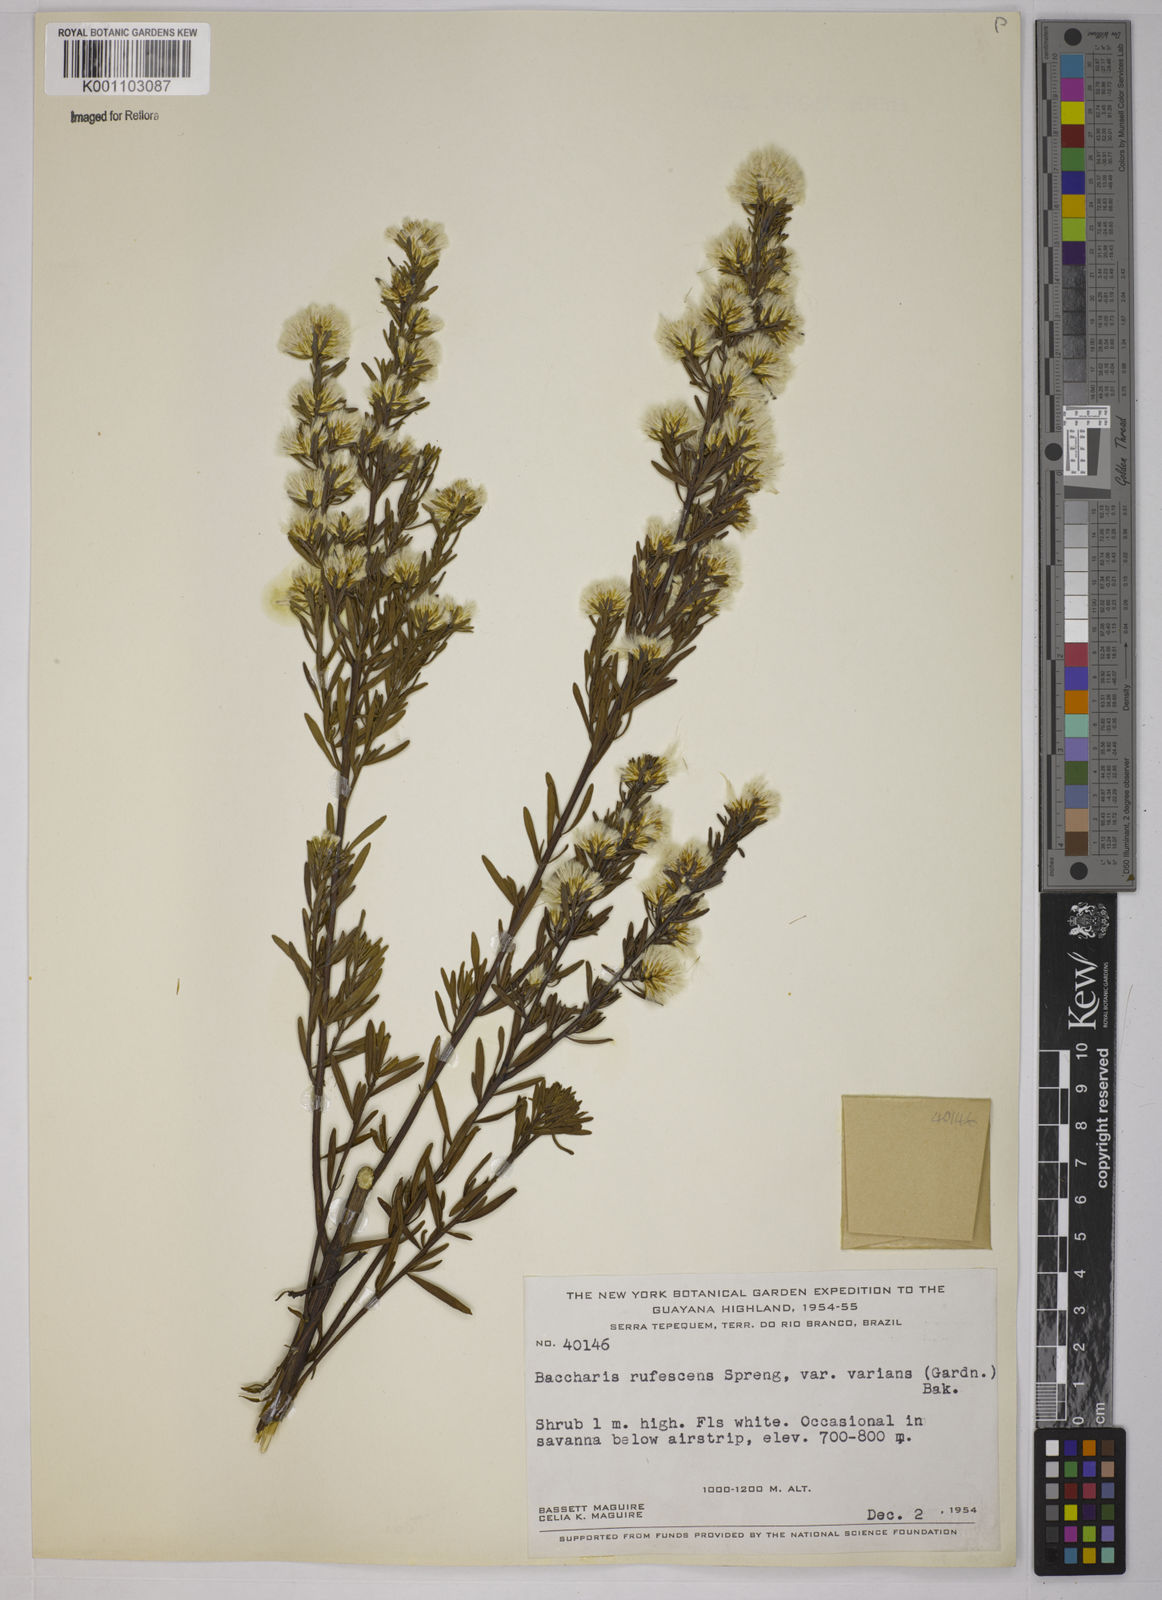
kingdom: Plantae
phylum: Tracheophyta
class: Magnoliopsida
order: Asterales
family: Asteraceae
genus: Baccharis
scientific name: Baccharis varians
